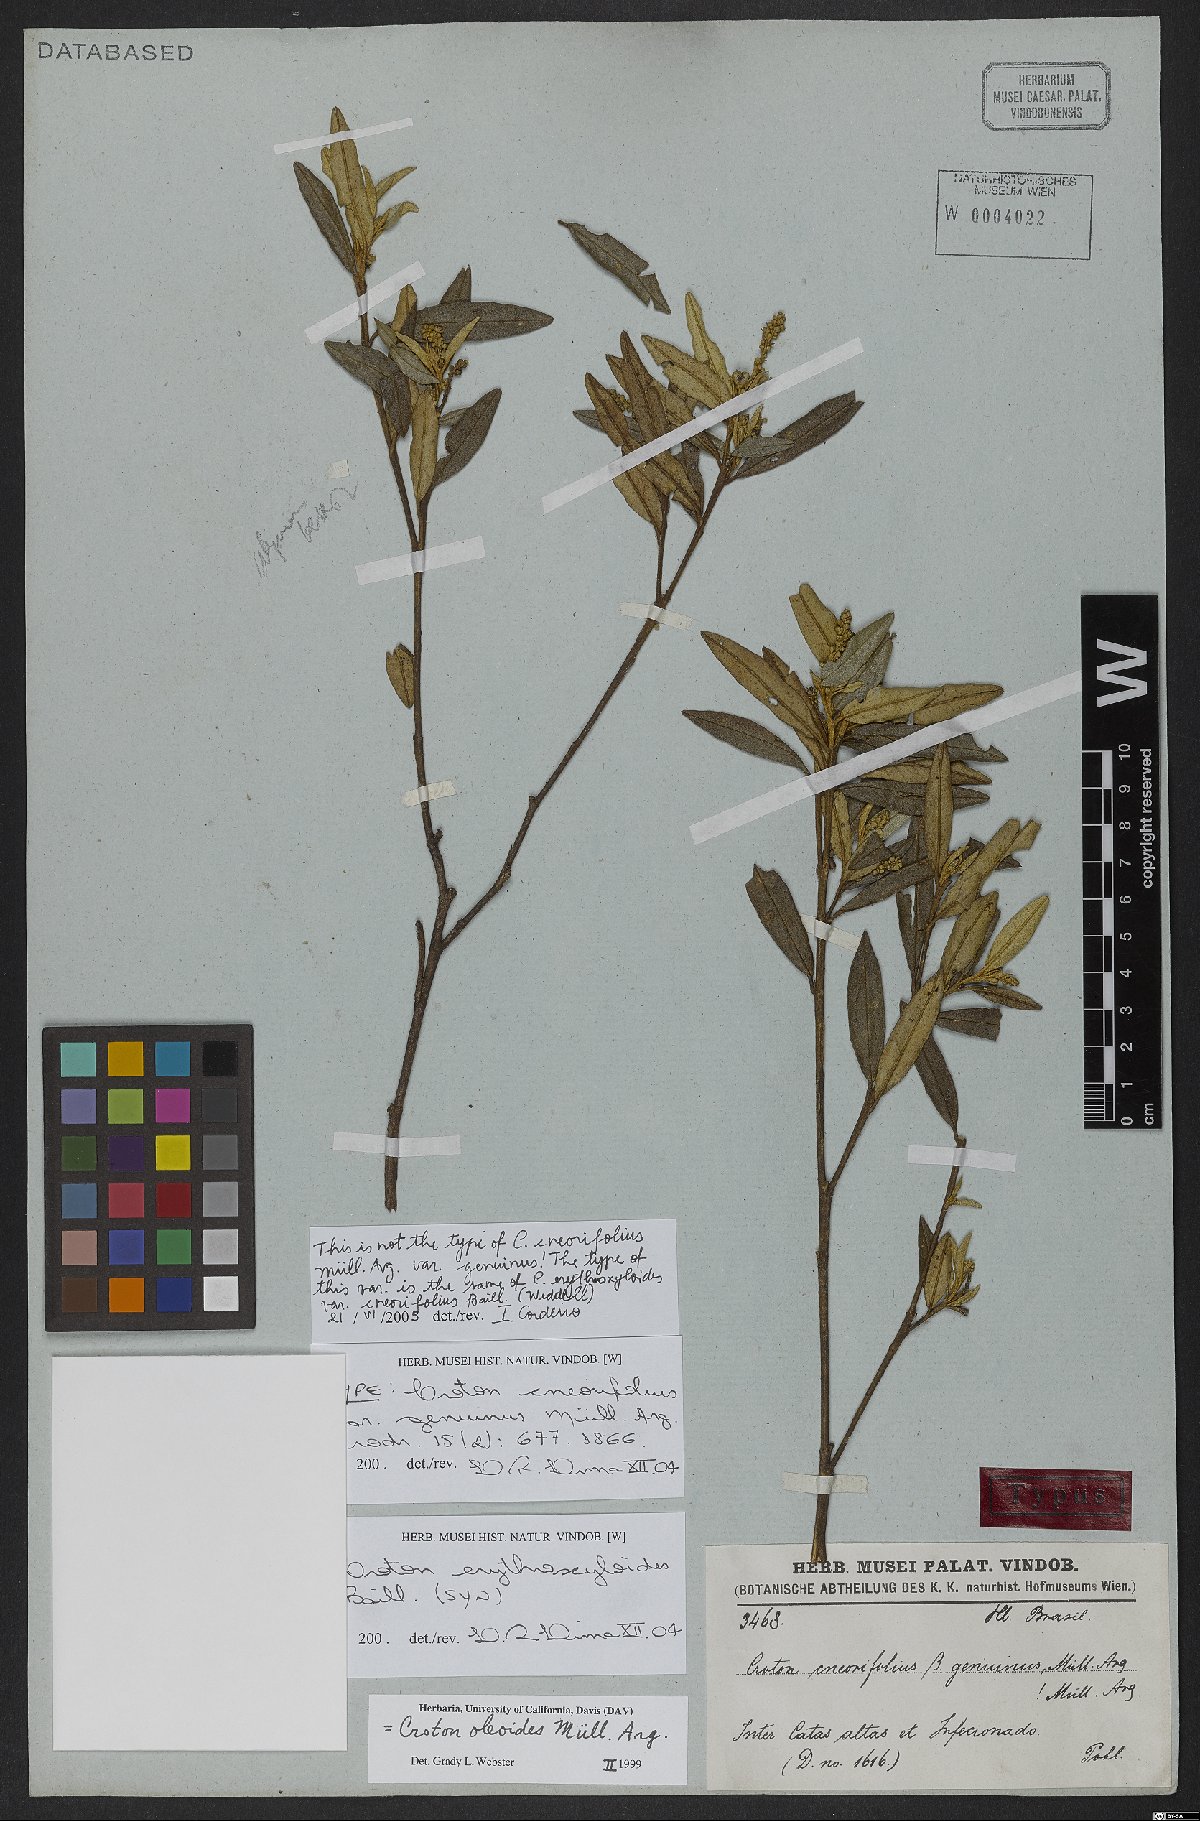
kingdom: Plantae
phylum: Tracheophyta
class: Magnoliopsida
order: Malpighiales
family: Euphorbiaceae
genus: Croton
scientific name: Croton erythroxyloides
